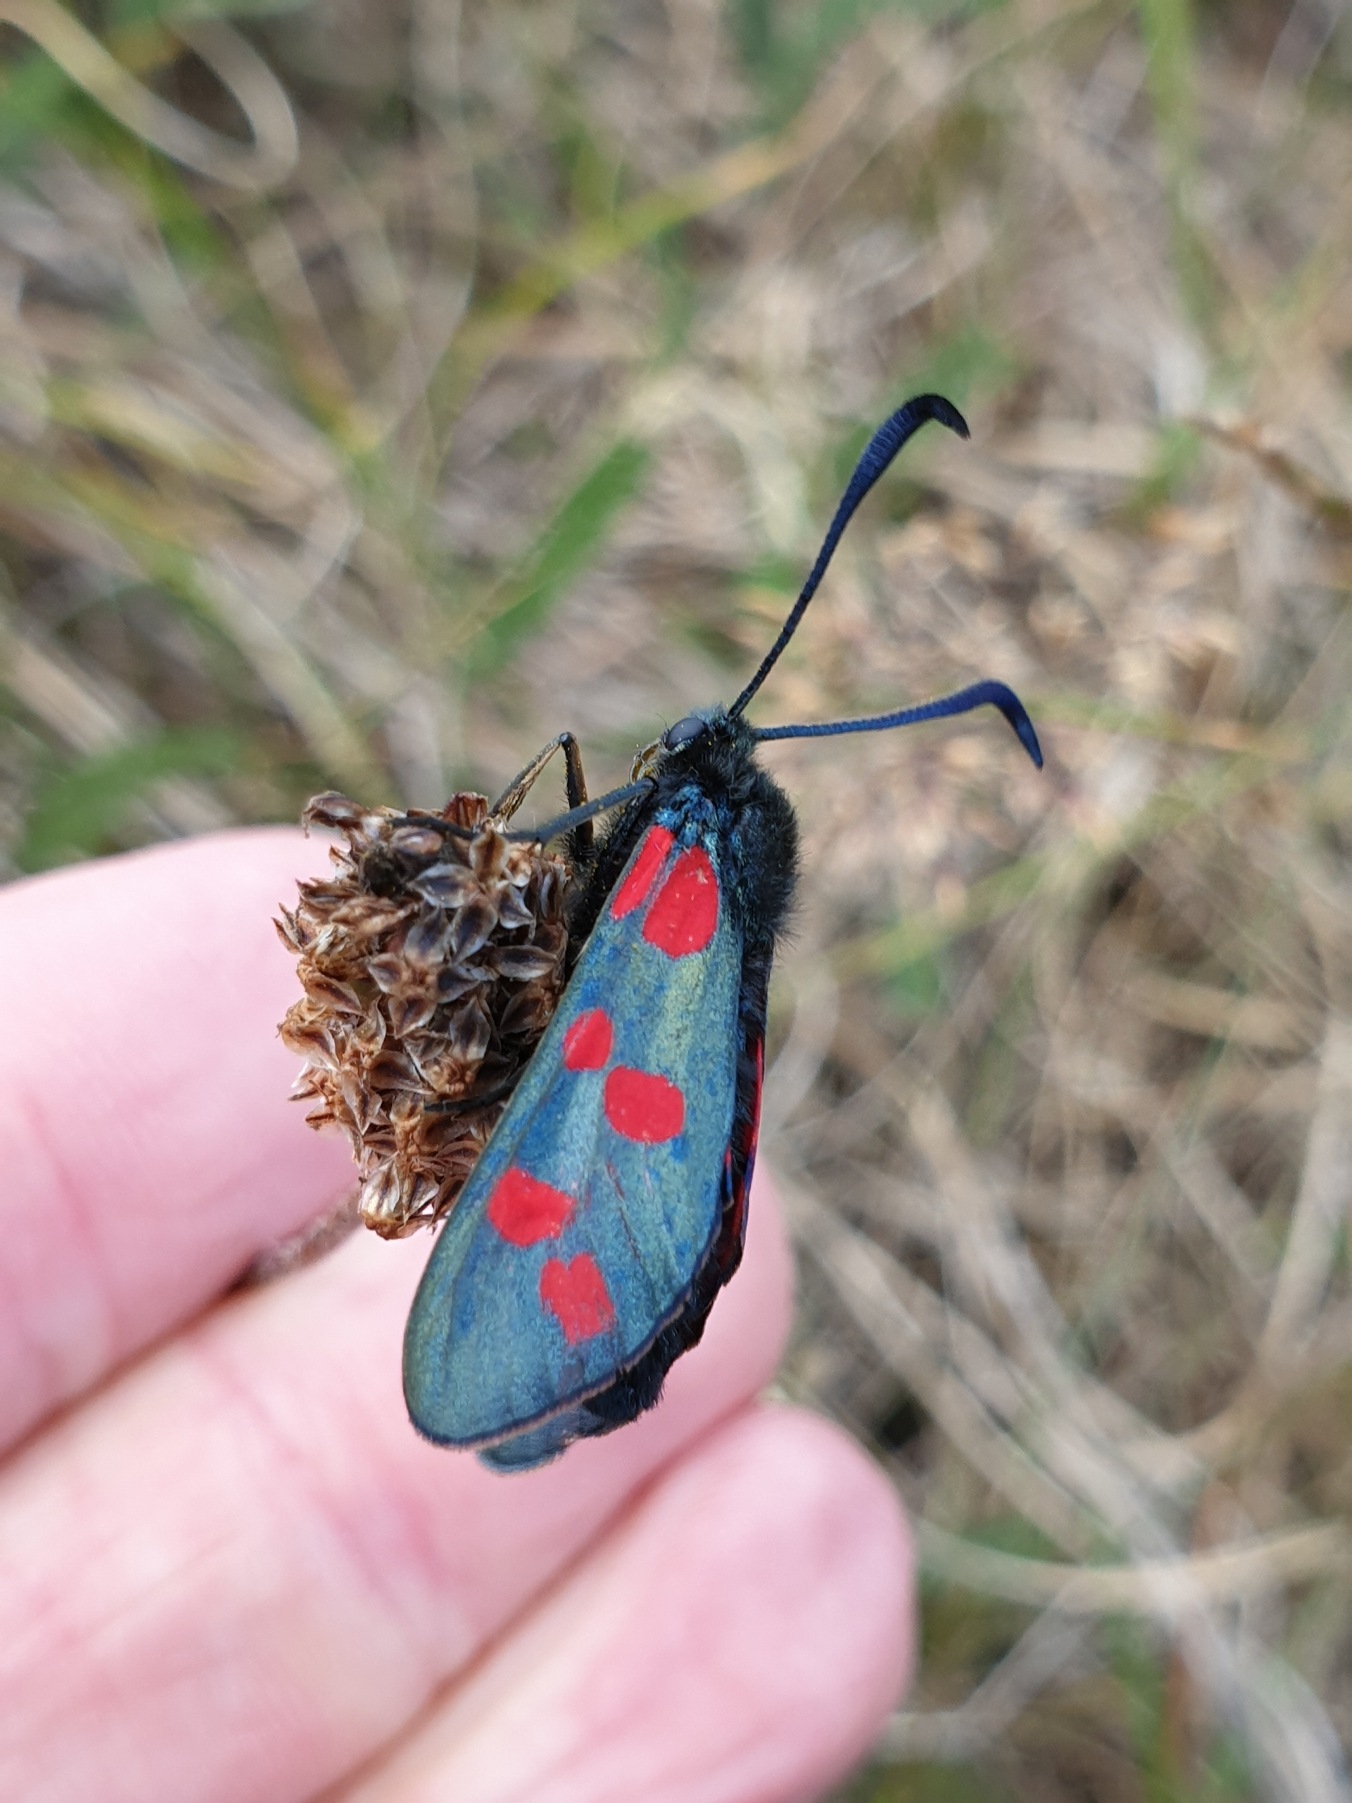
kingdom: Animalia
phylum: Arthropoda
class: Insecta
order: Lepidoptera
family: Zygaenidae
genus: Zygaena
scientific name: Zygaena filipendulae
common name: Seksplettet køllesværmer
